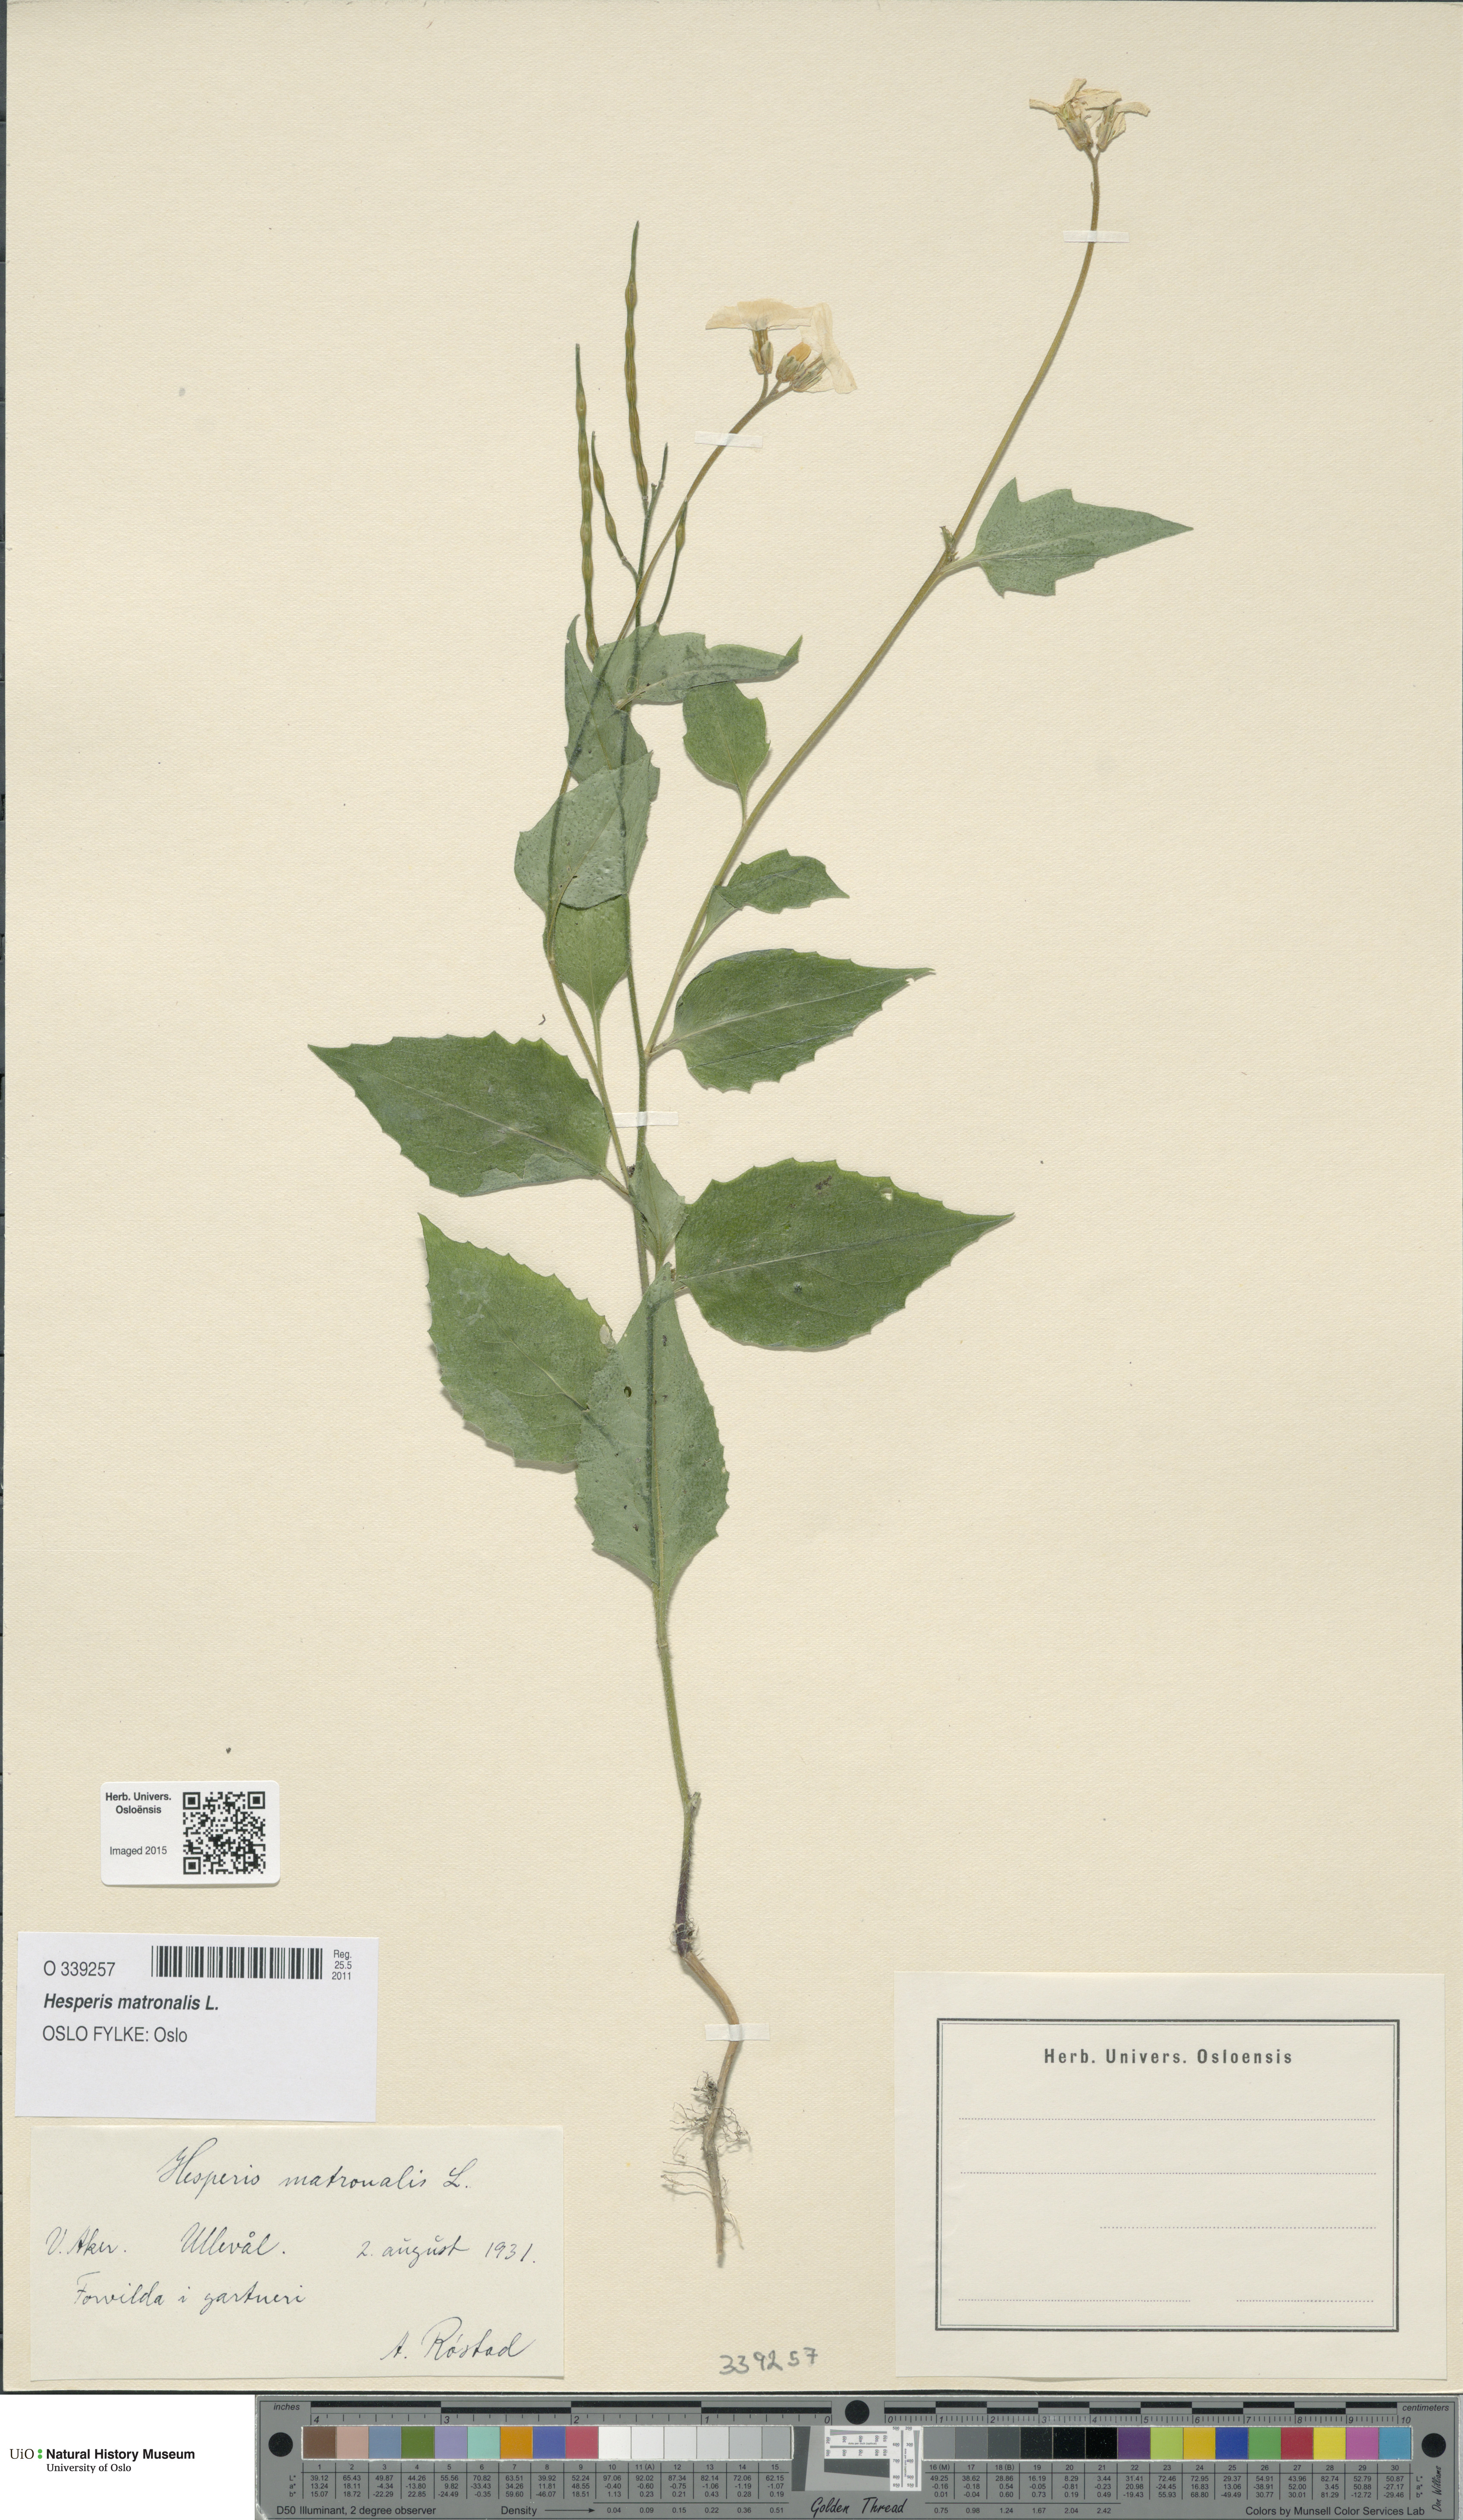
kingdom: Plantae
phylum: Tracheophyta
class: Magnoliopsida
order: Brassicales
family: Brassicaceae
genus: Hesperis
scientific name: Hesperis matronalis
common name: Dame's-violet
